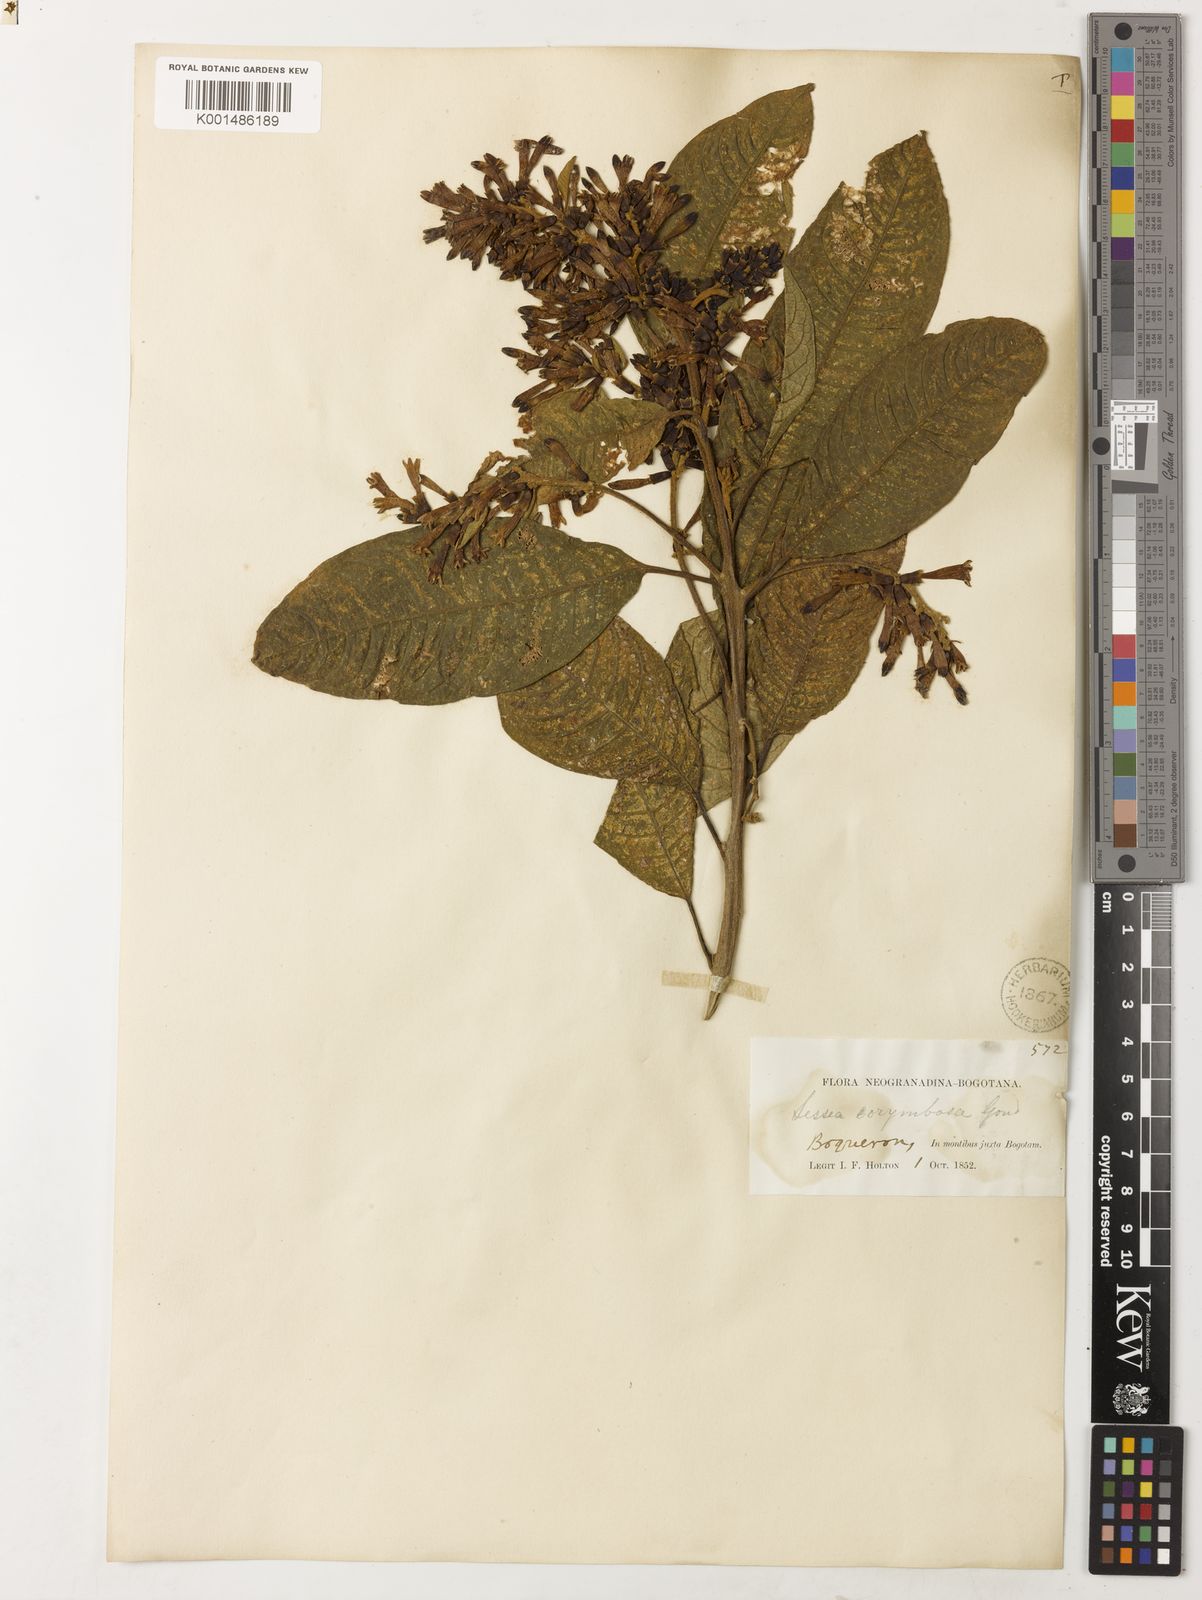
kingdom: Plantae
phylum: Tracheophyta
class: Magnoliopsida
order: Solanales
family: Solanaceae
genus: Sessea
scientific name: Sessea corymbiflora
